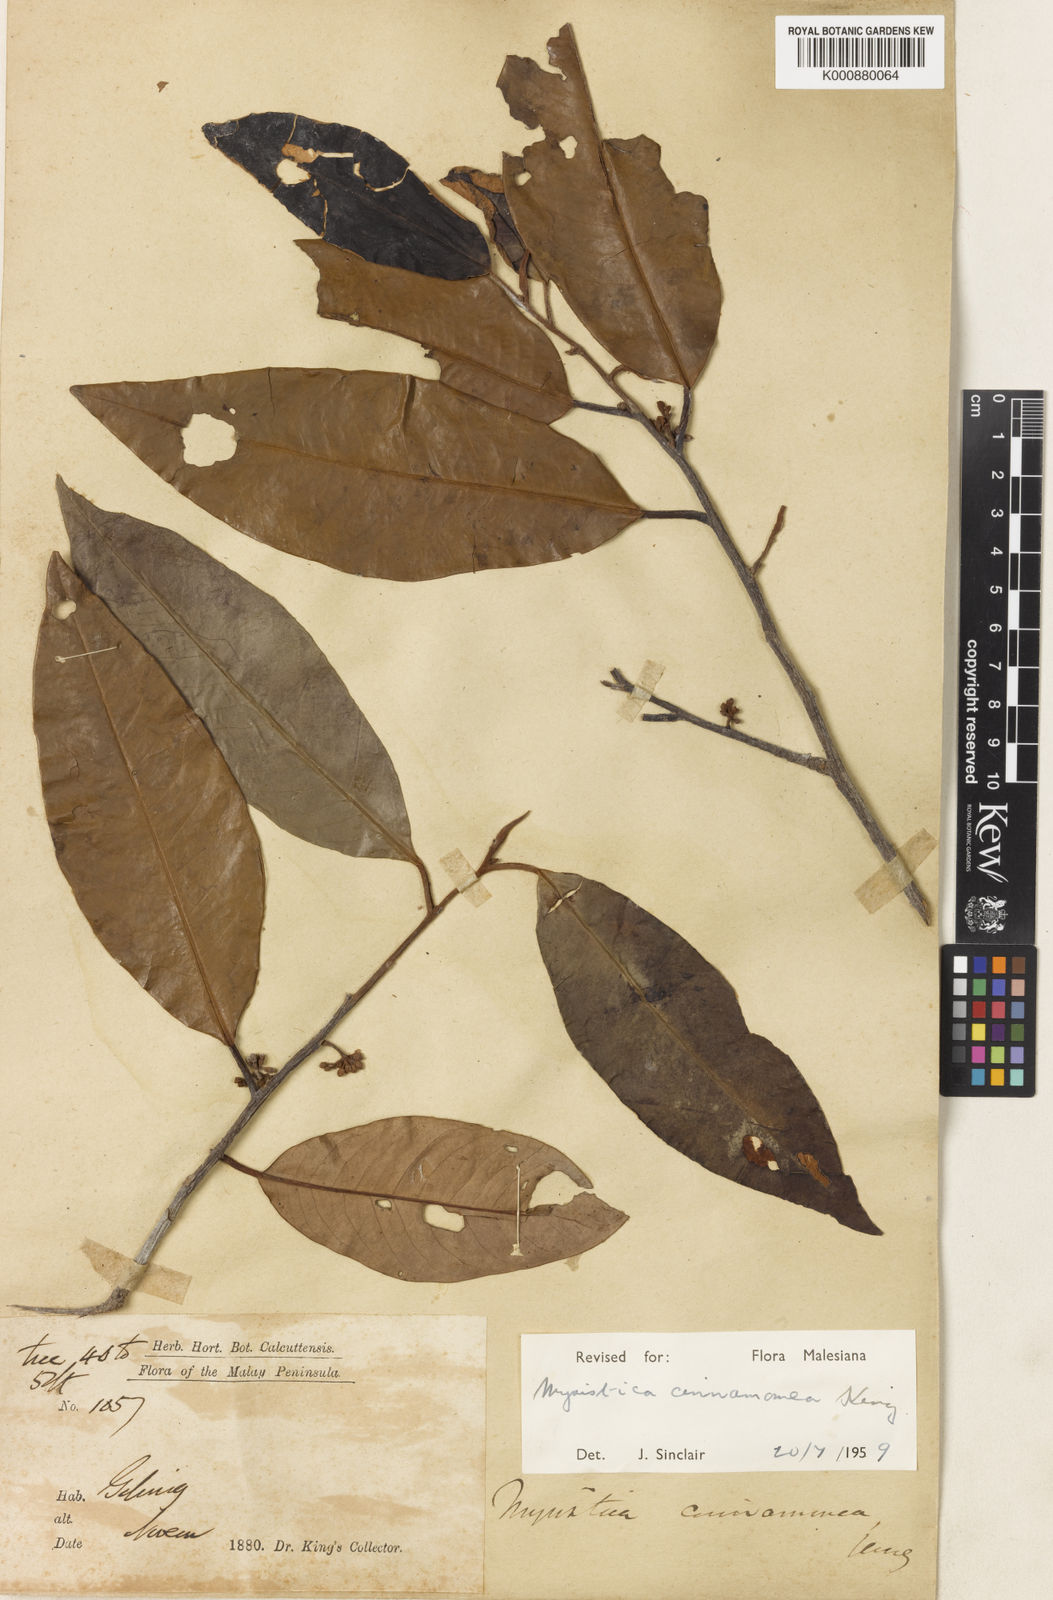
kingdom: Plantae
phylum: Tracheophyta
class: Magnoliopsida
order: Magnoliales
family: Myristicaceae
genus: Myristica
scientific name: Myristica cinnamomea
